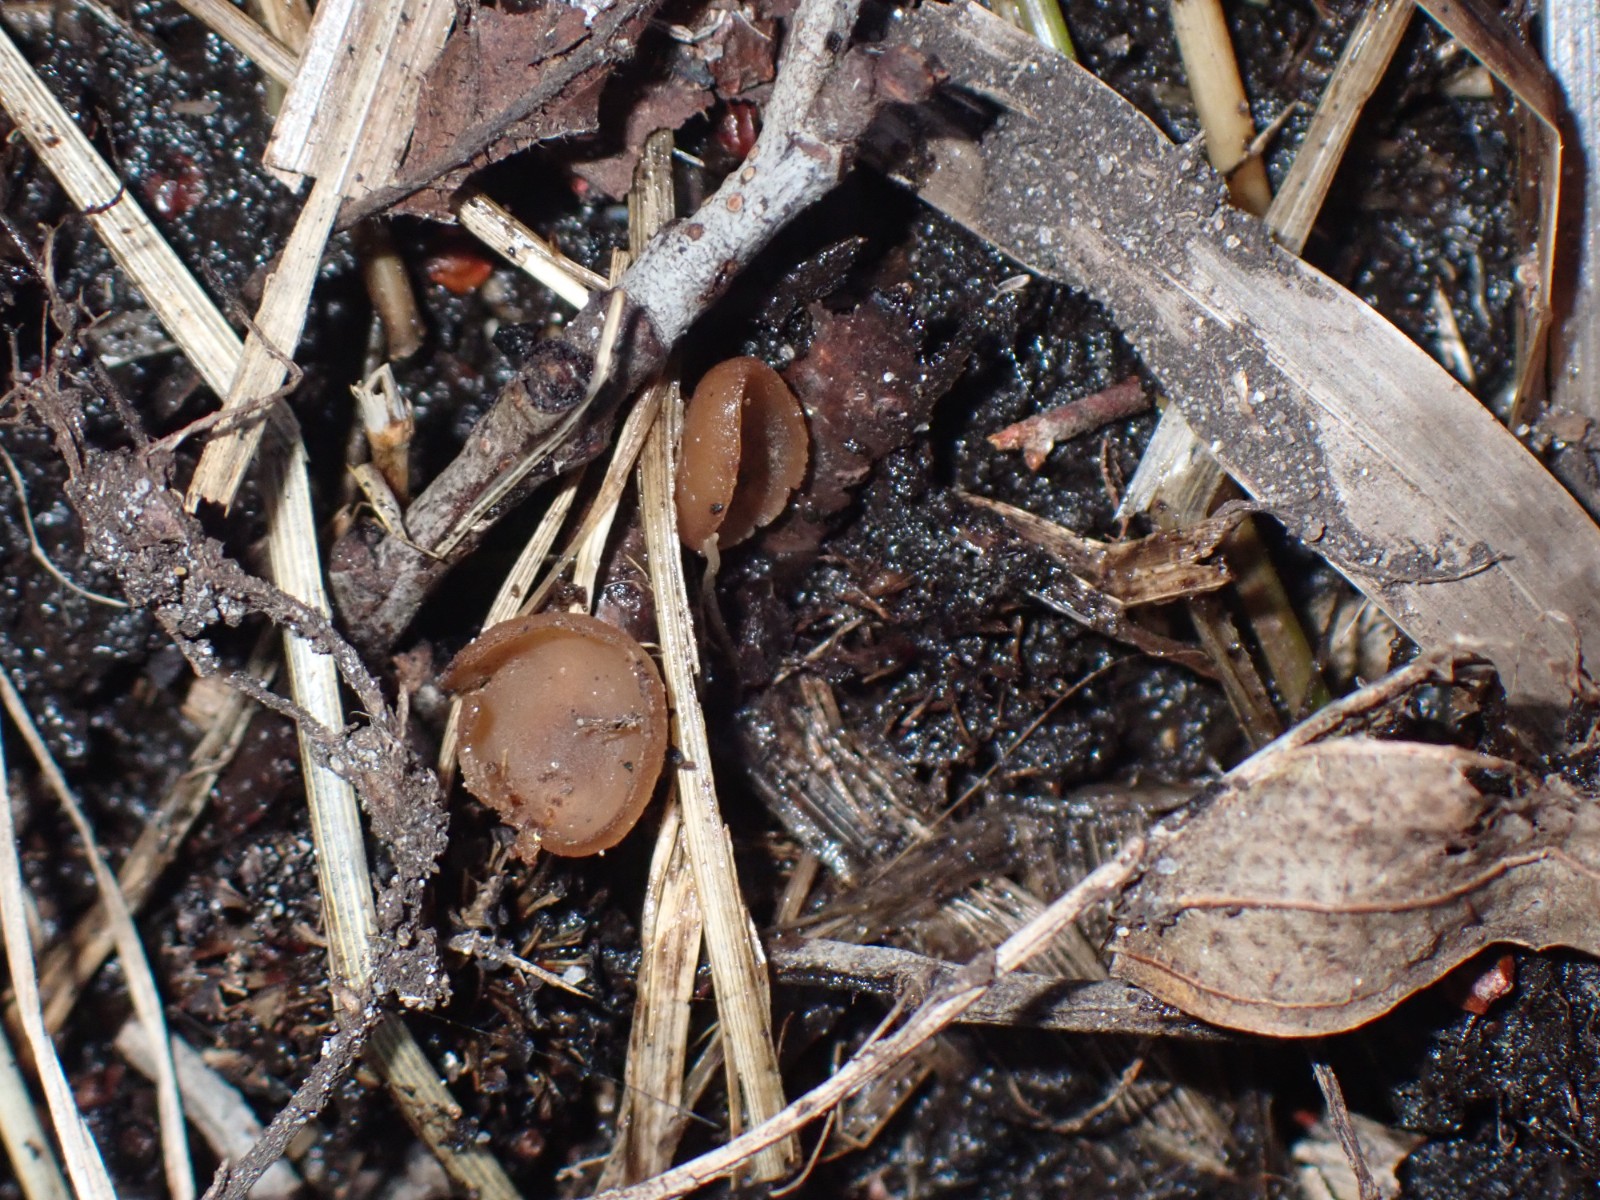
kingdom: Fungi
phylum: Ascomycota
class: Leotiomycetes
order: Helotiales
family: Sclerotiniaceae
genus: Ciboria
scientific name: Ciboria amentacea
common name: ellerakle-knoldskive
